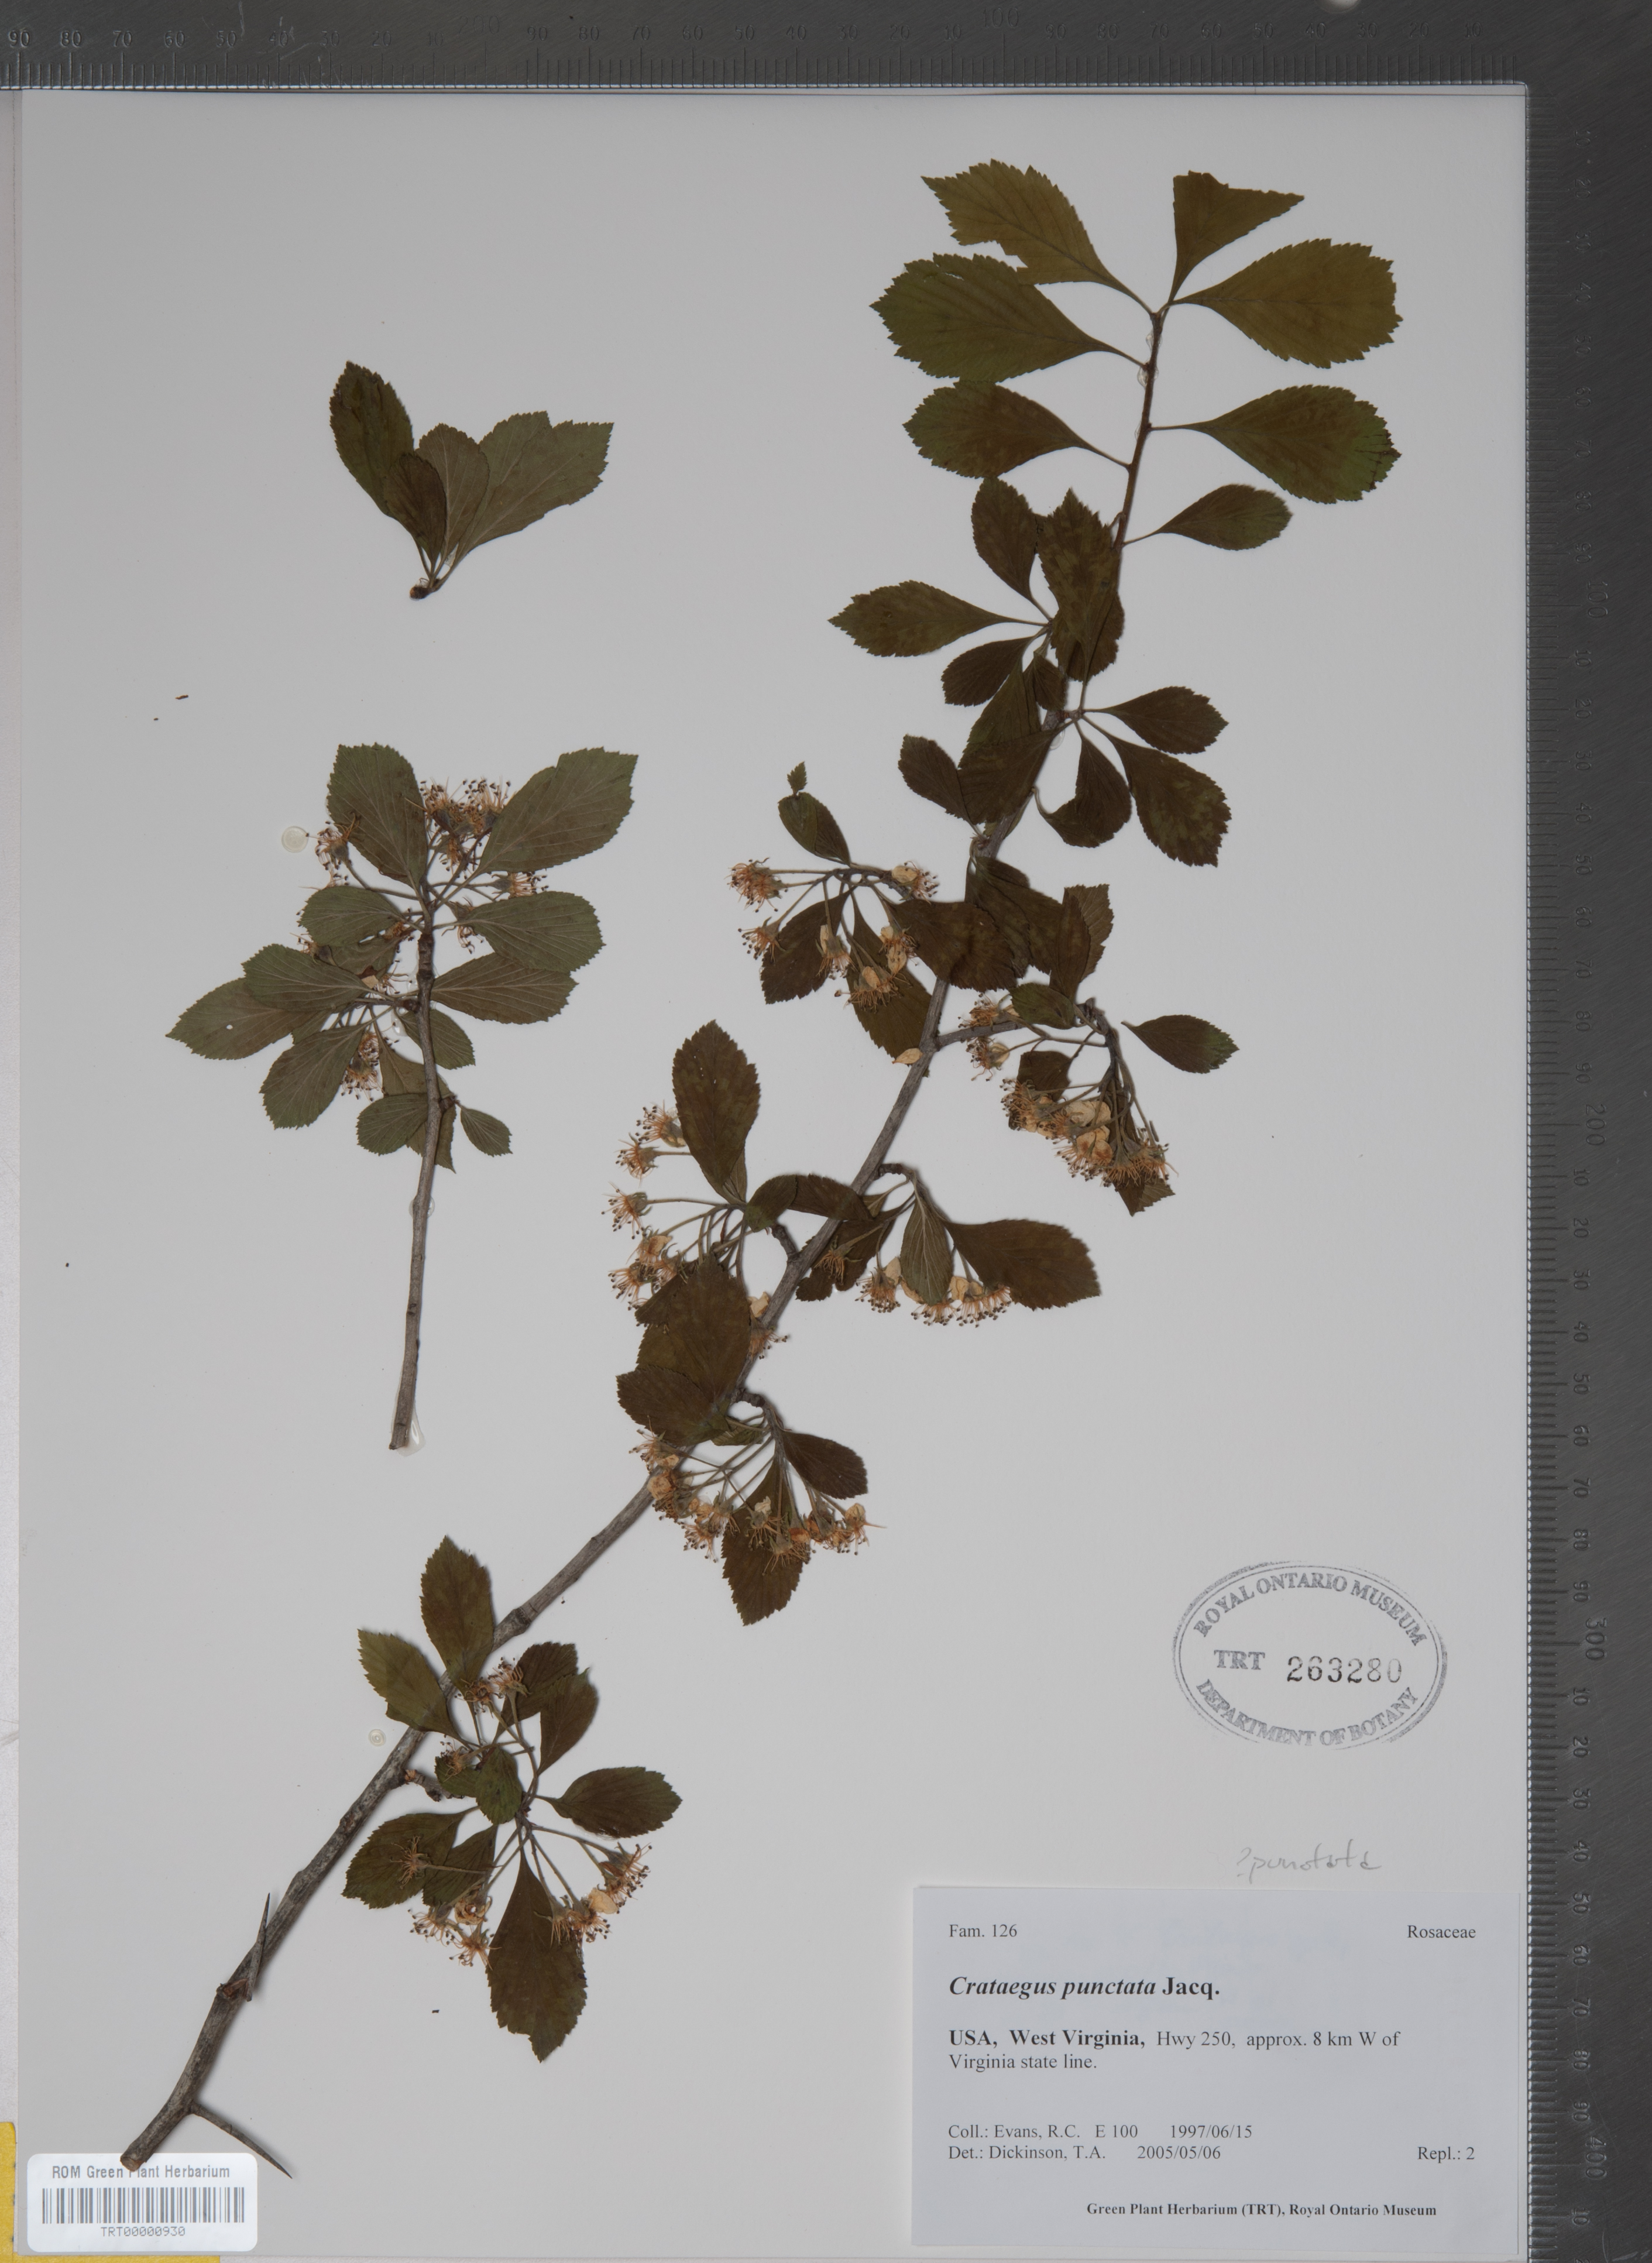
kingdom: Plantae
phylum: Tracheophyta
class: Magnoliopsida
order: Rosales
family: Rosaceae
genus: Crataegus
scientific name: Crataegus punctata
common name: Dotted hawthorn
